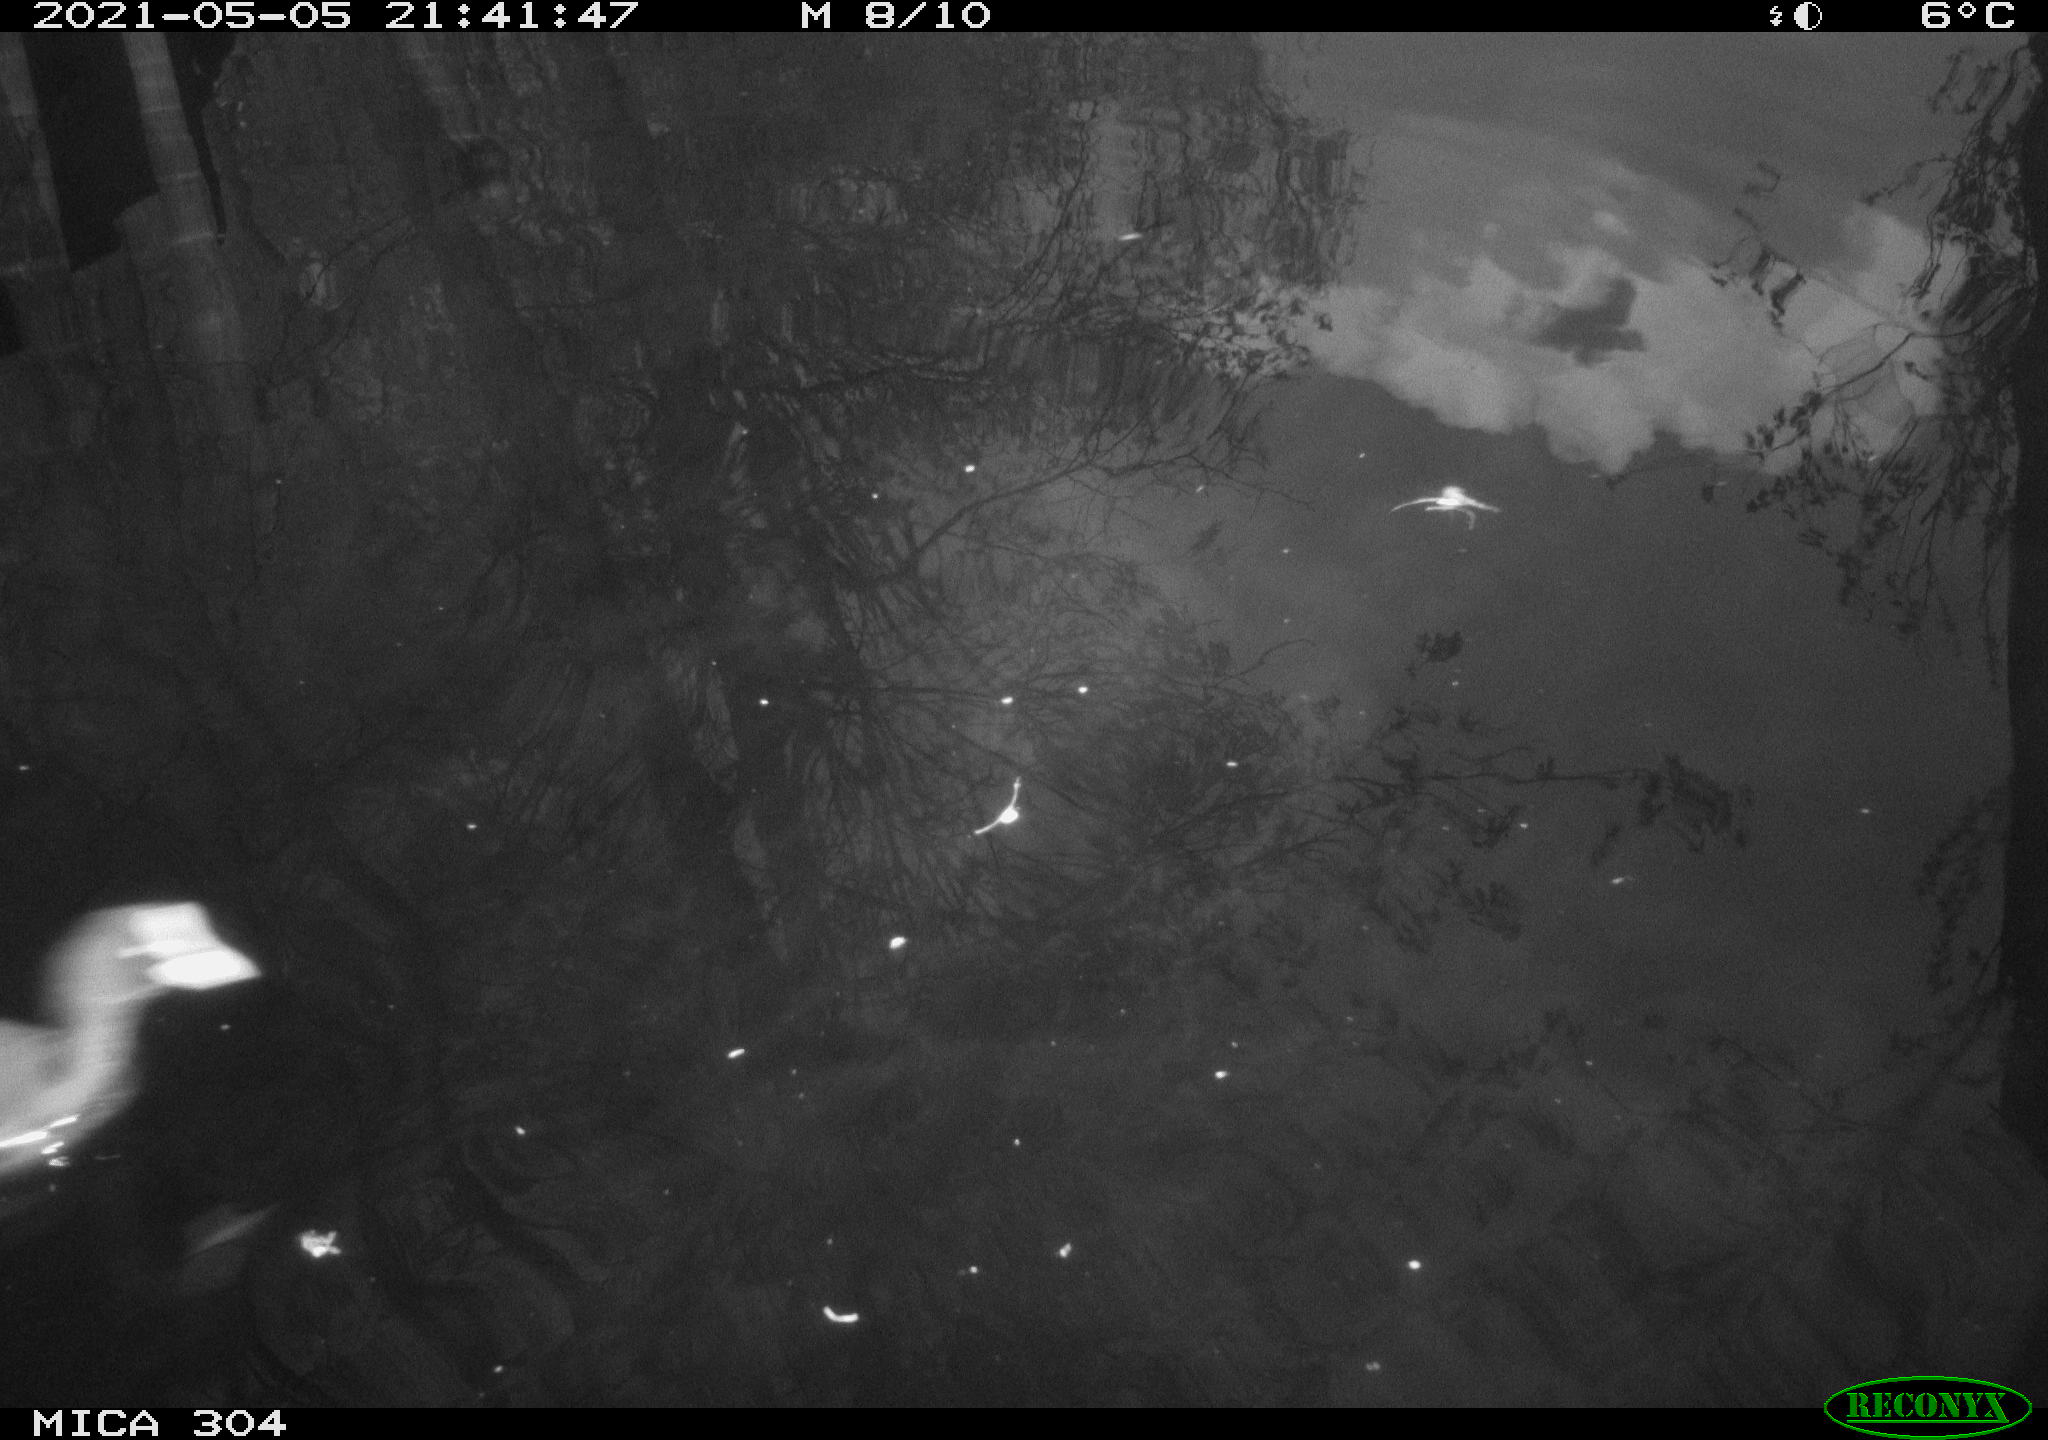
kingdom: Animalia
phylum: Chordata
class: Aves
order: Gruiformes
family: Rallidae
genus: Fulica
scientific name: Fulica atra
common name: Eurasian coot
